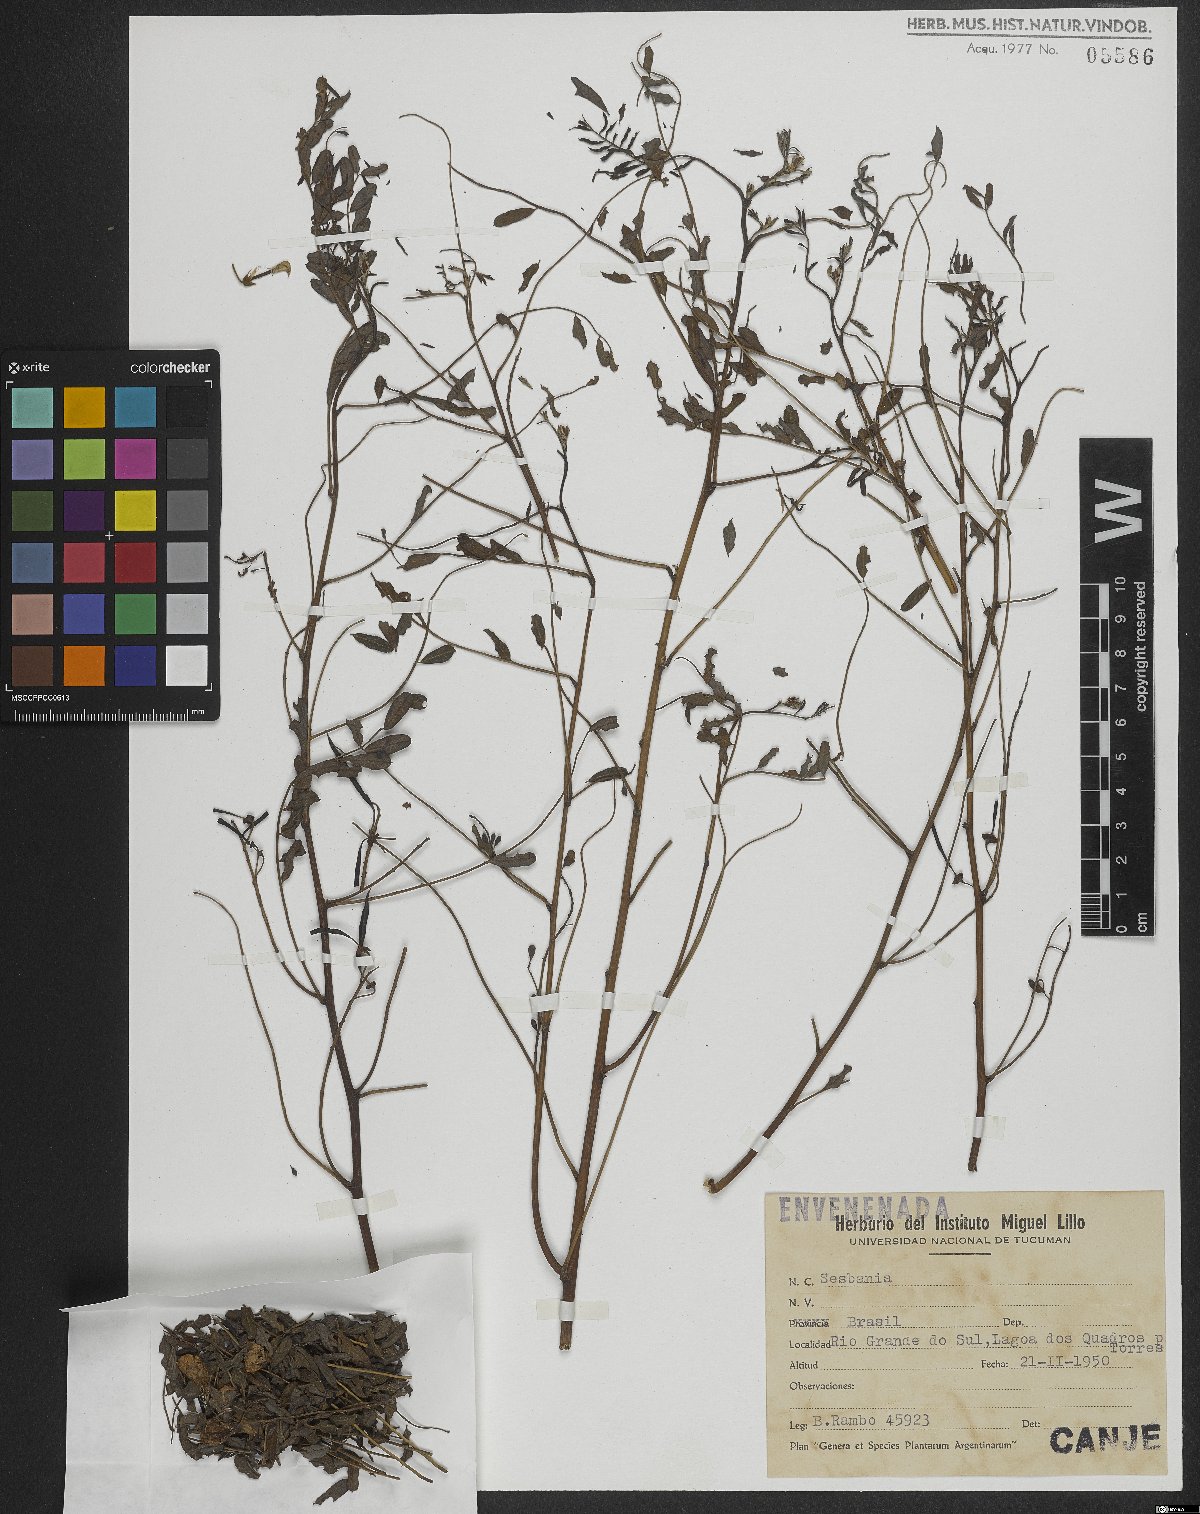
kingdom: Plantae
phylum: Tracheophyta
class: Magnoliopsida
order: Fabales
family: Fabaceae
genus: Sesbania
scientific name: Sesbania
